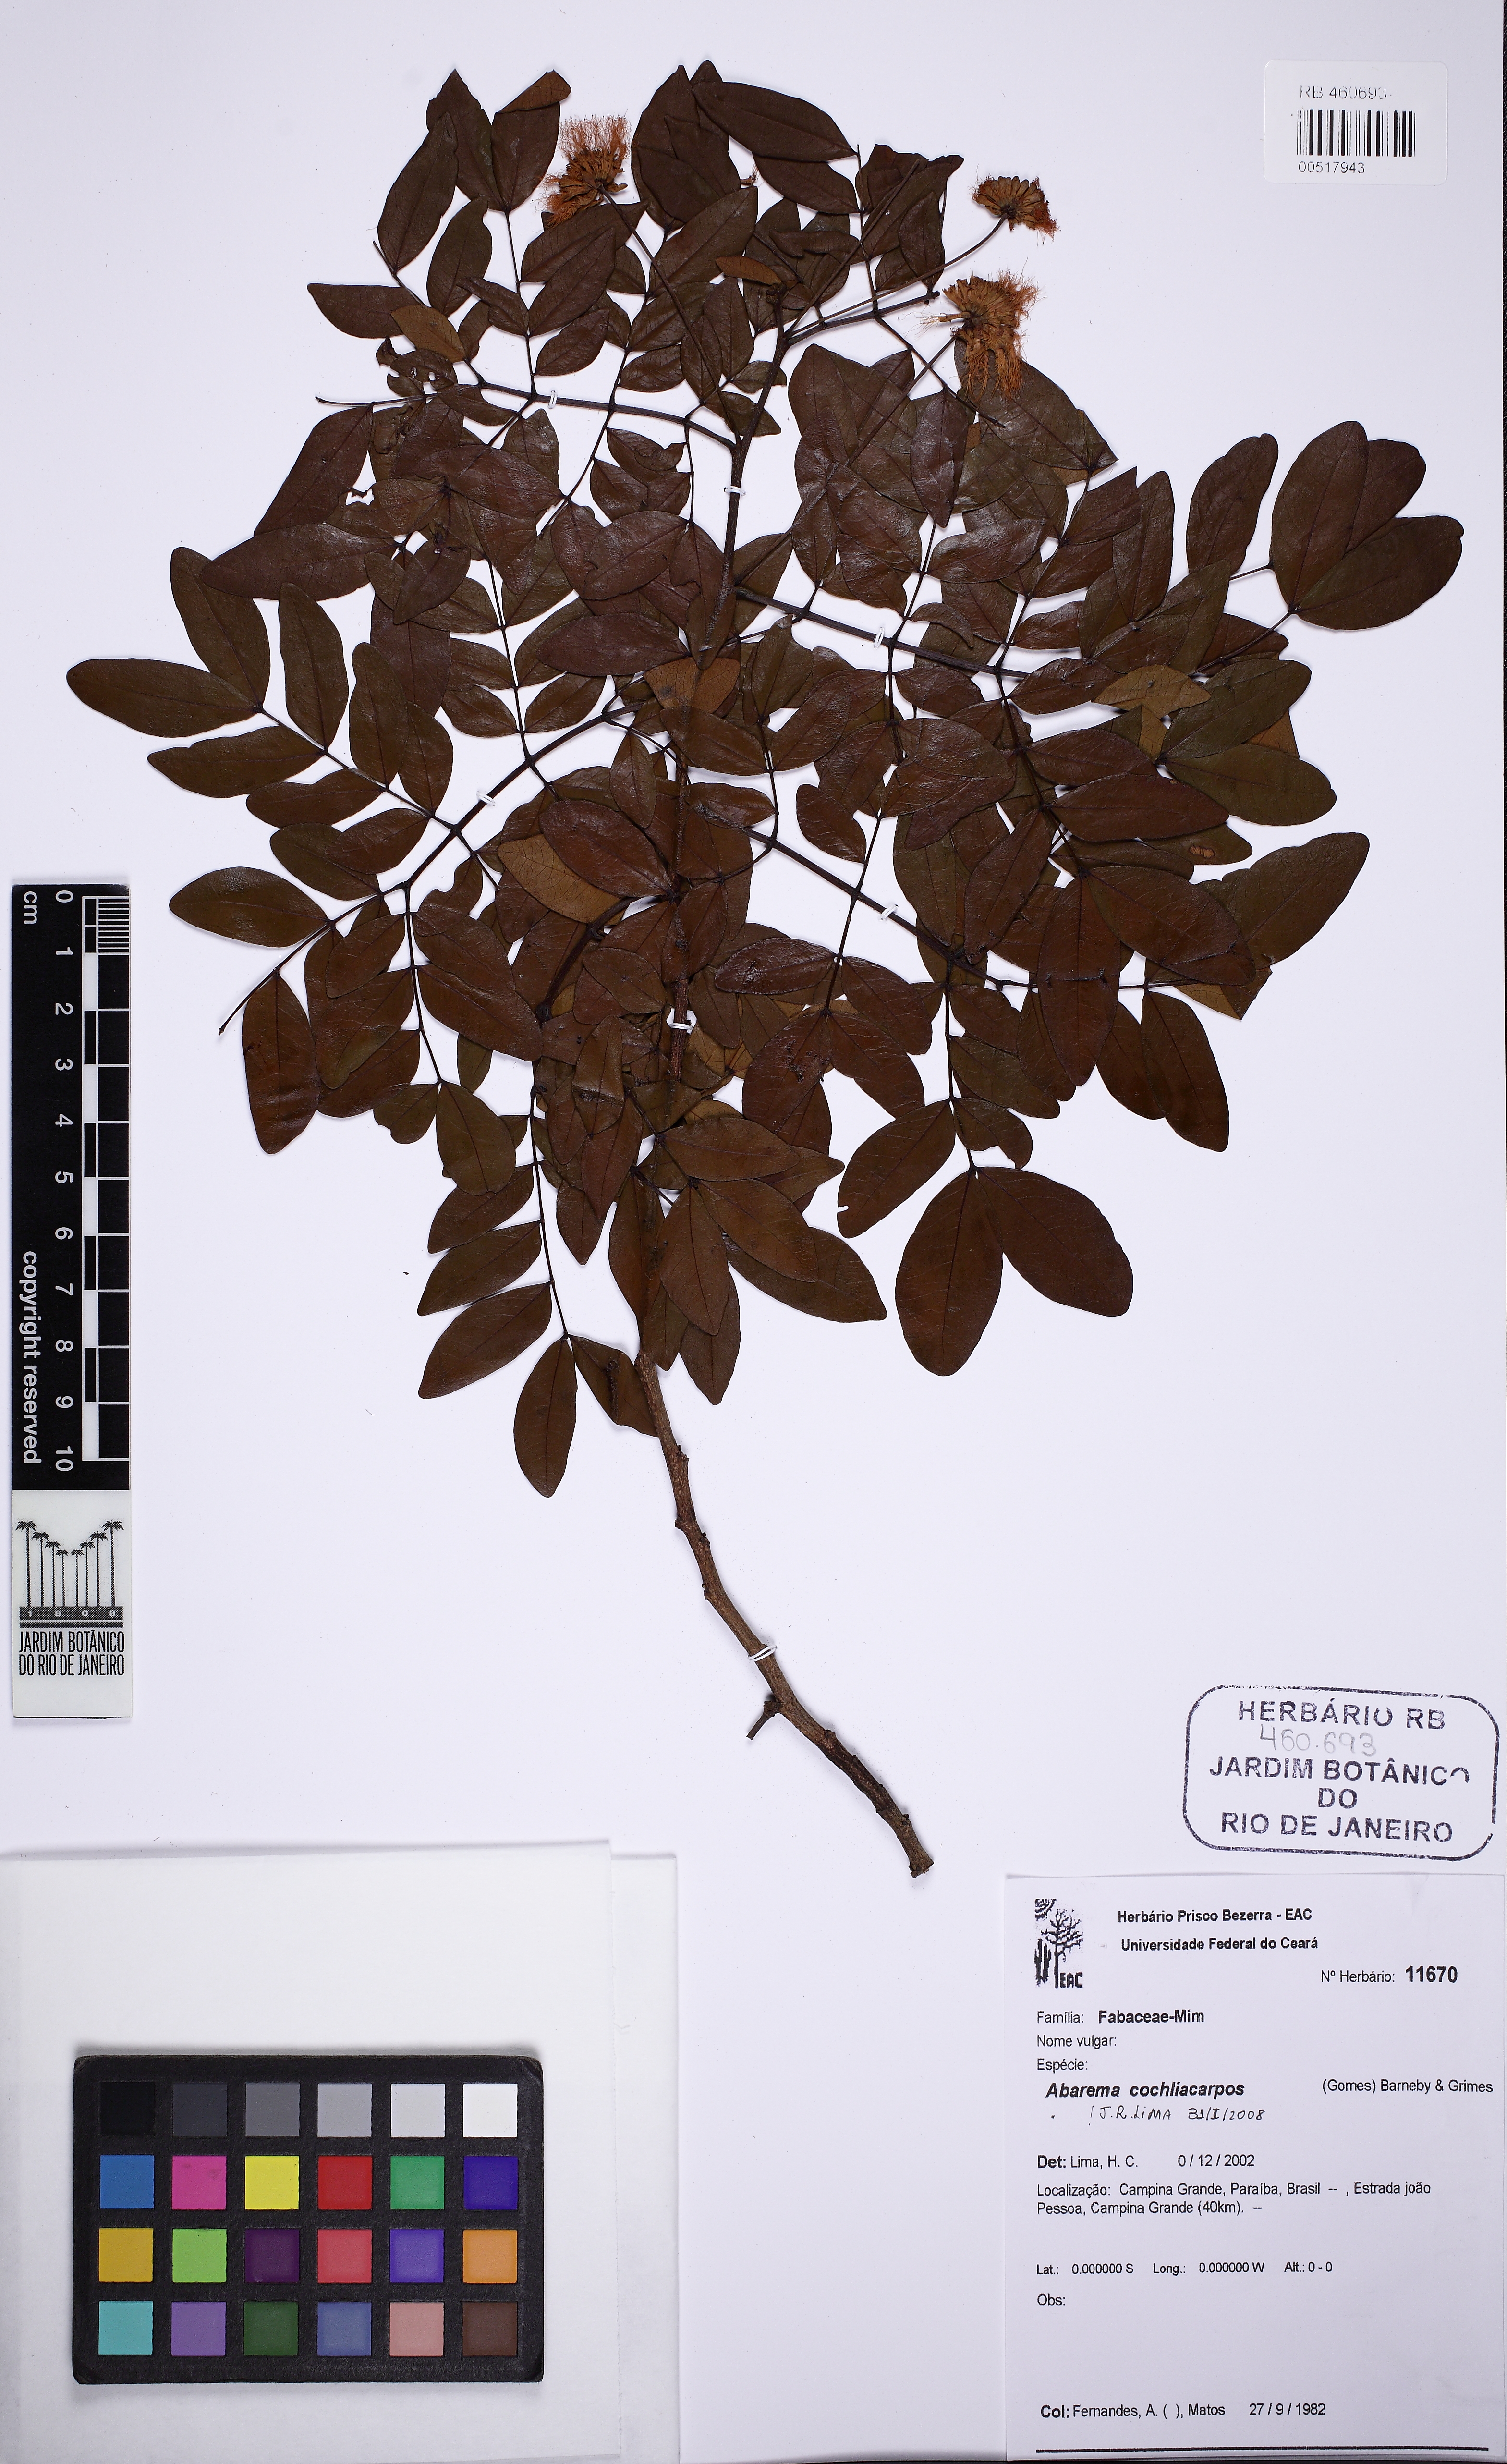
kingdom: Plantae
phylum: Tracheophyta
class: Magnoliopsida
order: Fabales
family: Fabaceae
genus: Abarema
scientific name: Abarema cochliacarpos
